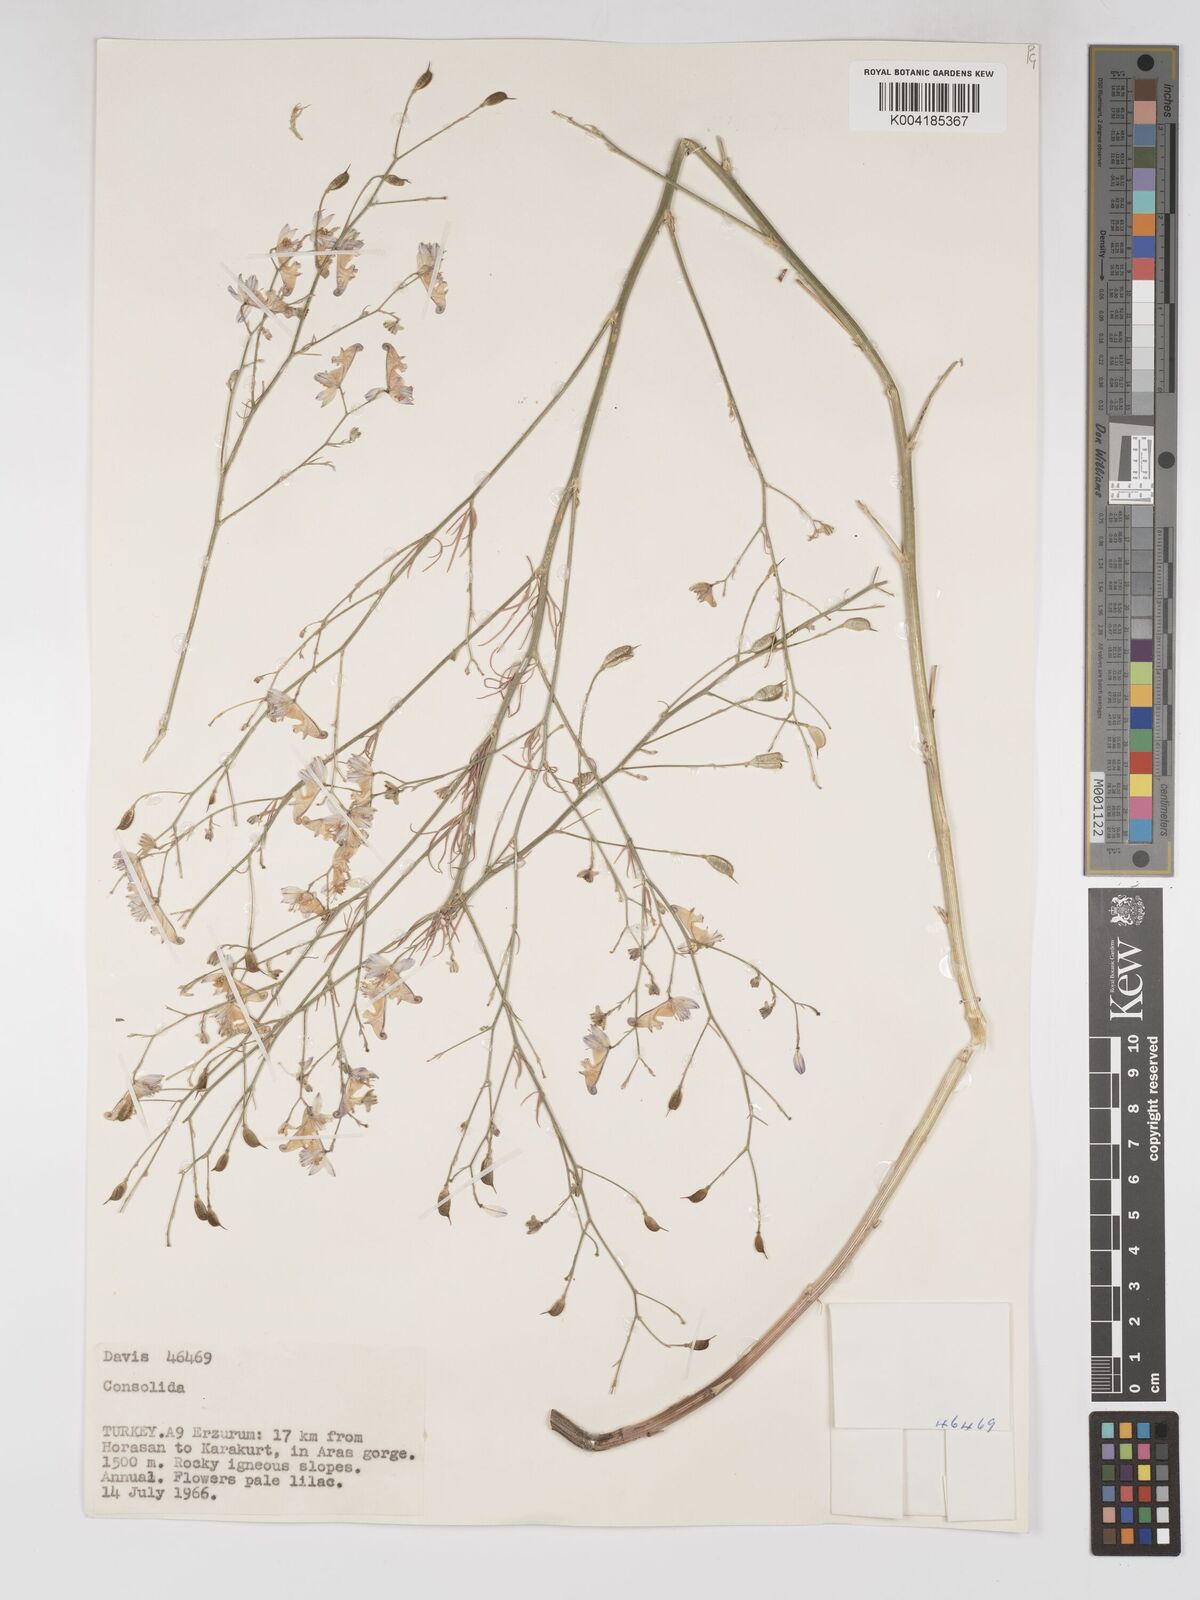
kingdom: Plantae
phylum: Tracheophyta
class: Magnoliopsida
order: Ranunculales
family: Ranunculaceae
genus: Delphinium
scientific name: Delphinium
